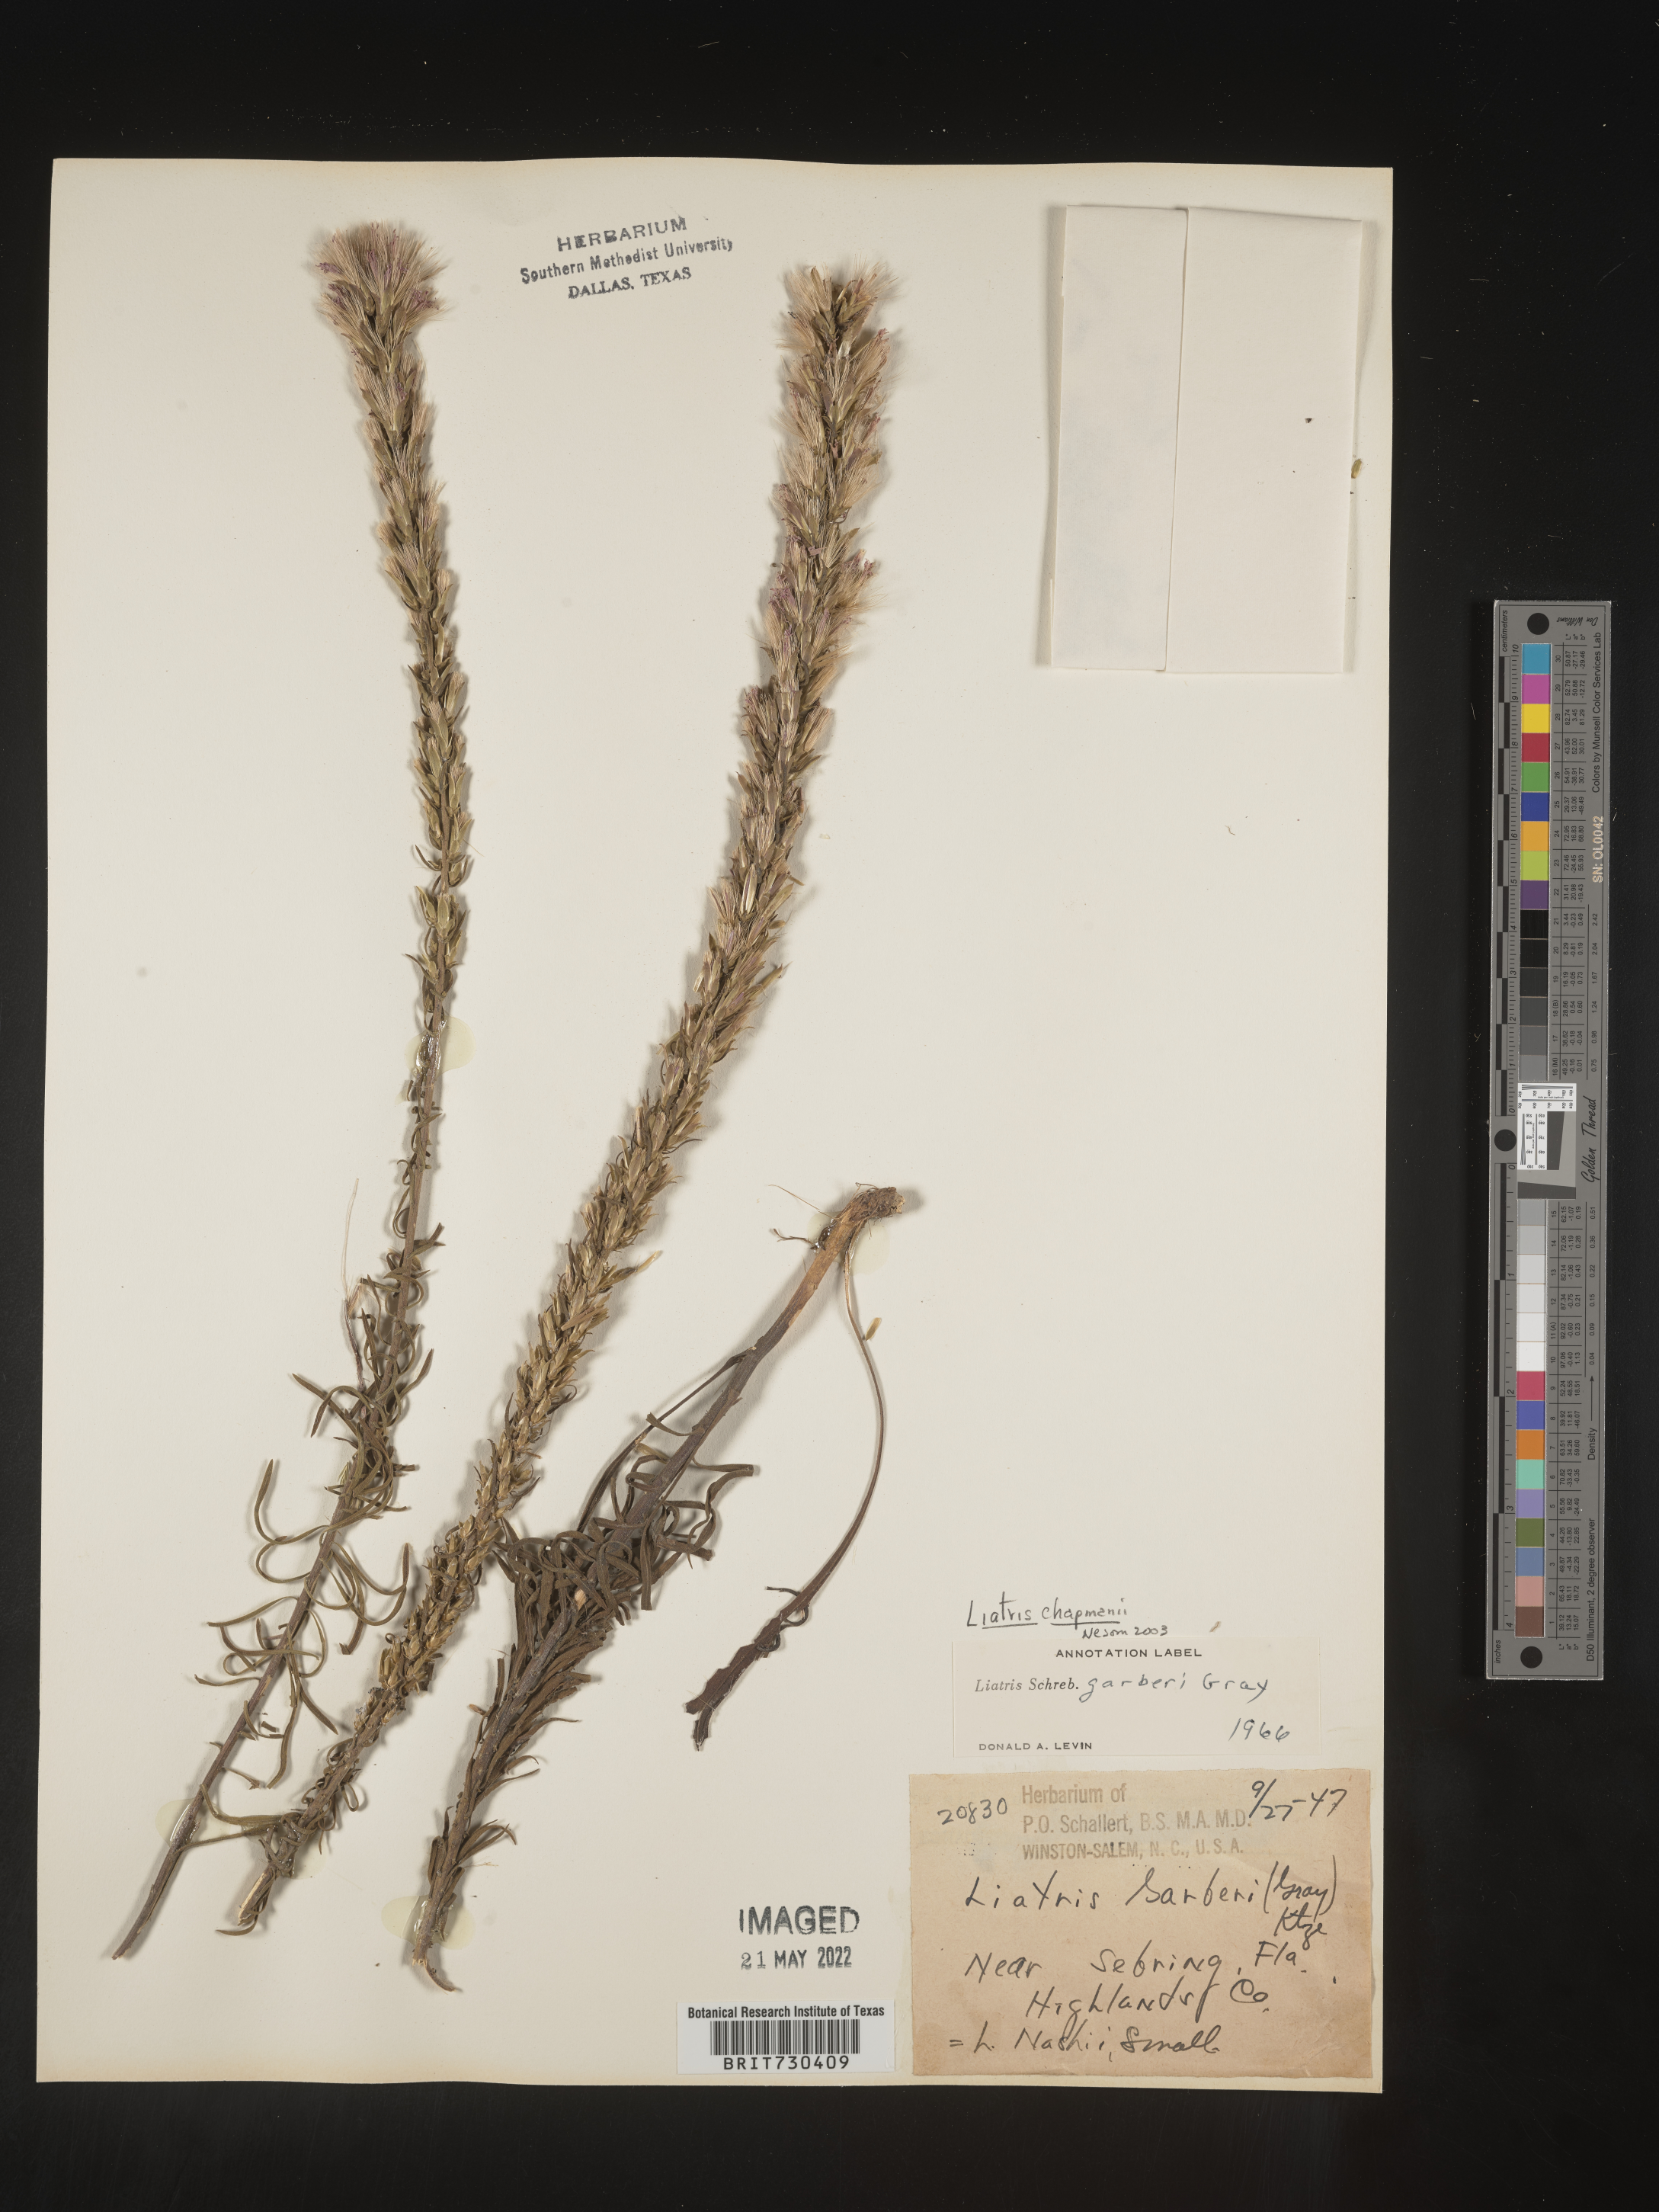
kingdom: Plantae
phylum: Tracheophyta
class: Magnoliopsida
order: Asterales
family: Asteraceae
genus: Liatris
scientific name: Liatris chapmanii
